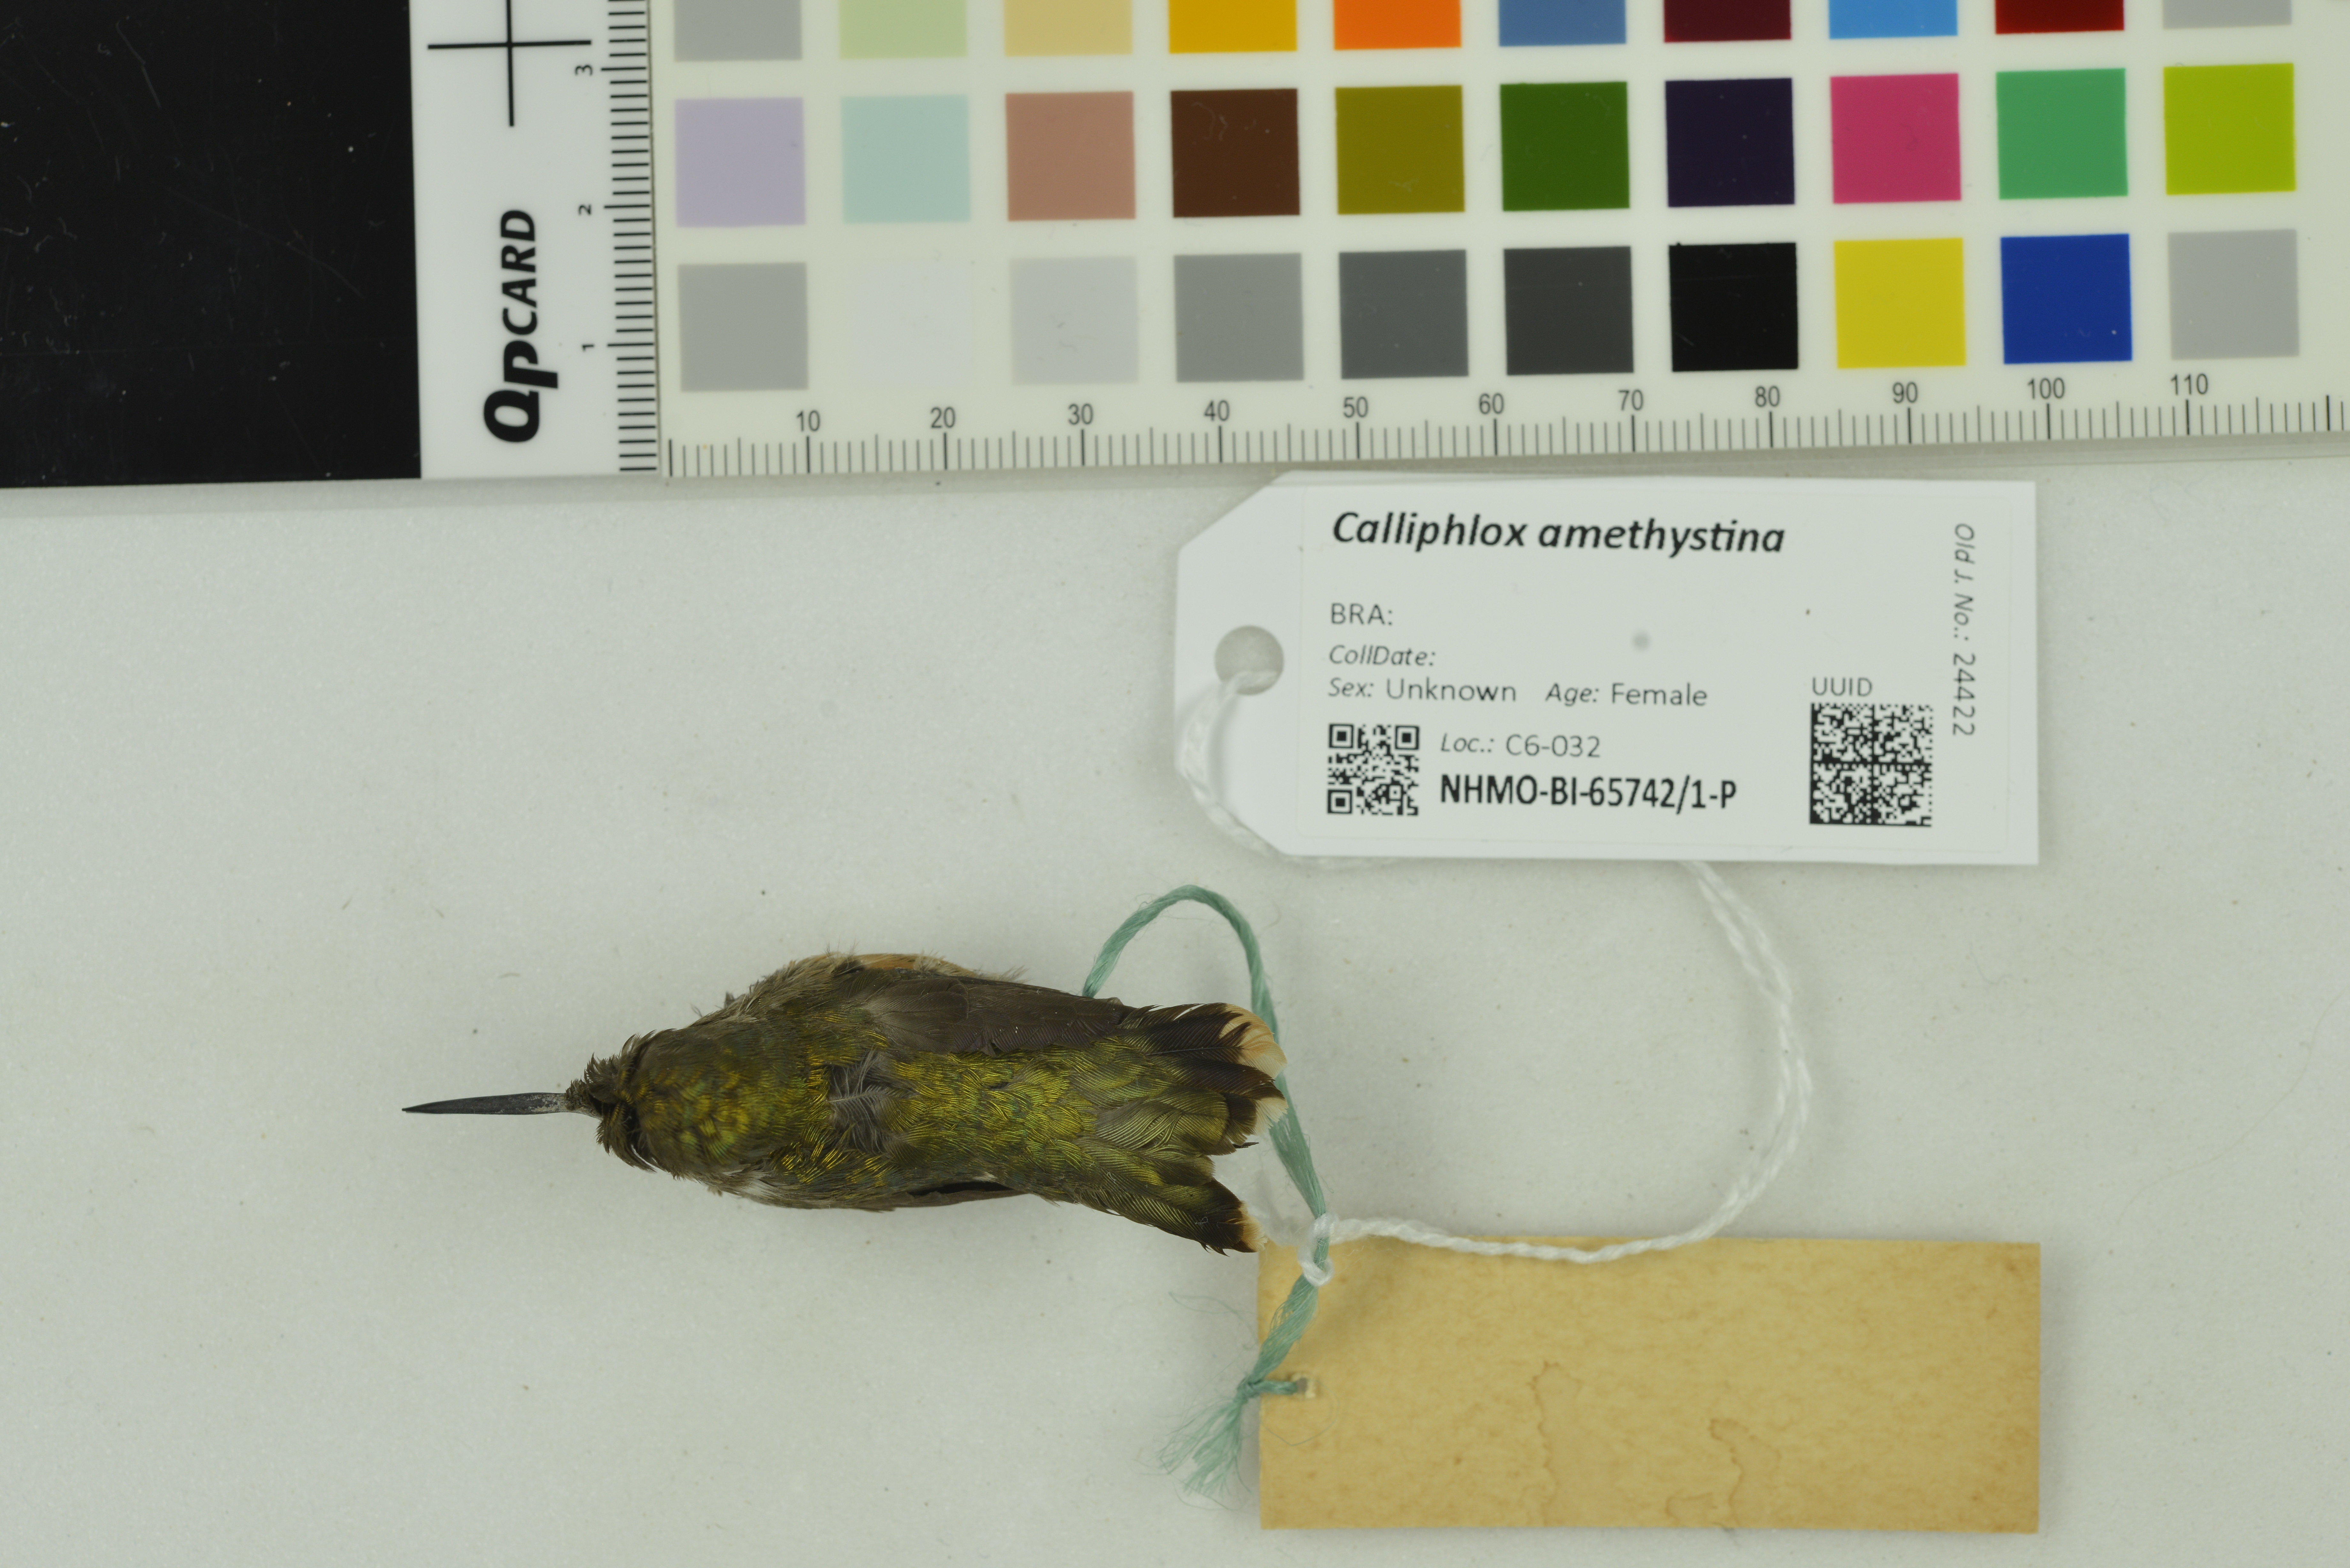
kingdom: Animalia
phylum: Chordata
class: Aves
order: Apodiformes
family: Trochilidae
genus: Calliphlox
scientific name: Calliphlox amethystina
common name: Amethyst woodstar
